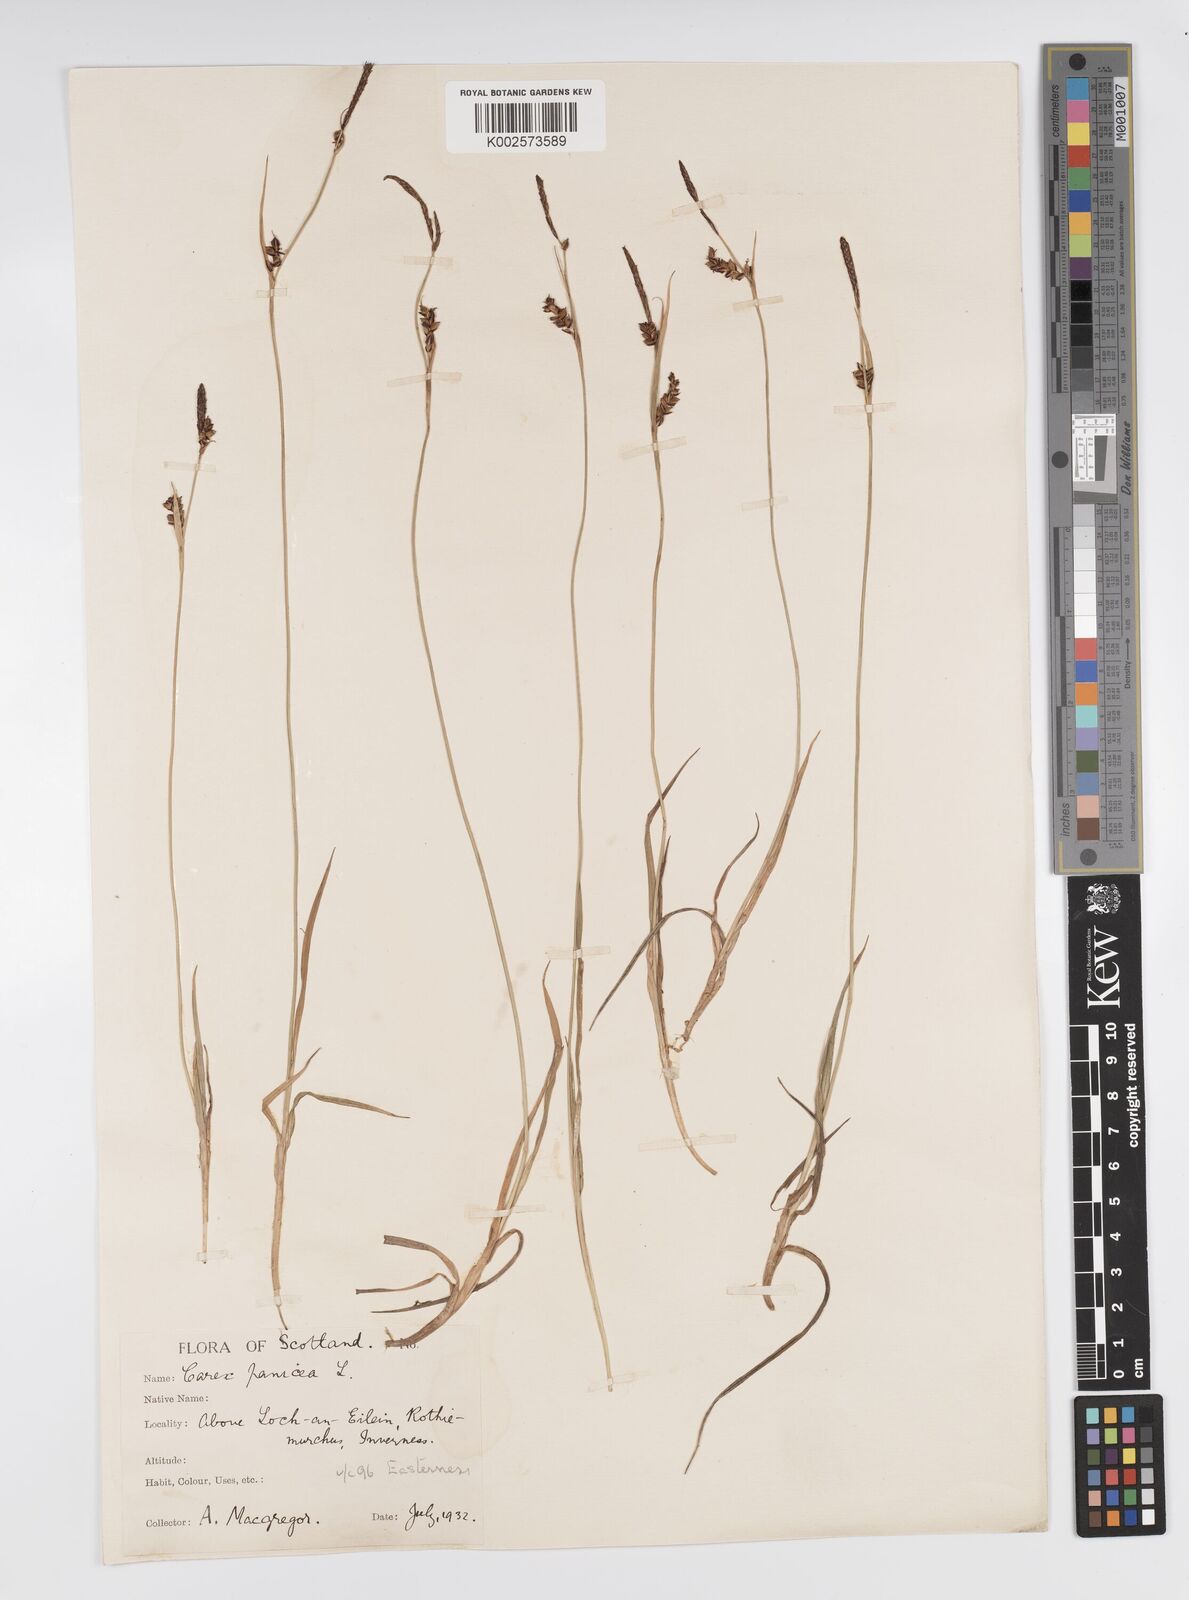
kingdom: Plantae
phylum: Tracheophyta
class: Liliopsida
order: Poales
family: Cyperaceae
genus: Carex
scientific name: Carex panicea
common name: Carnation sedge
